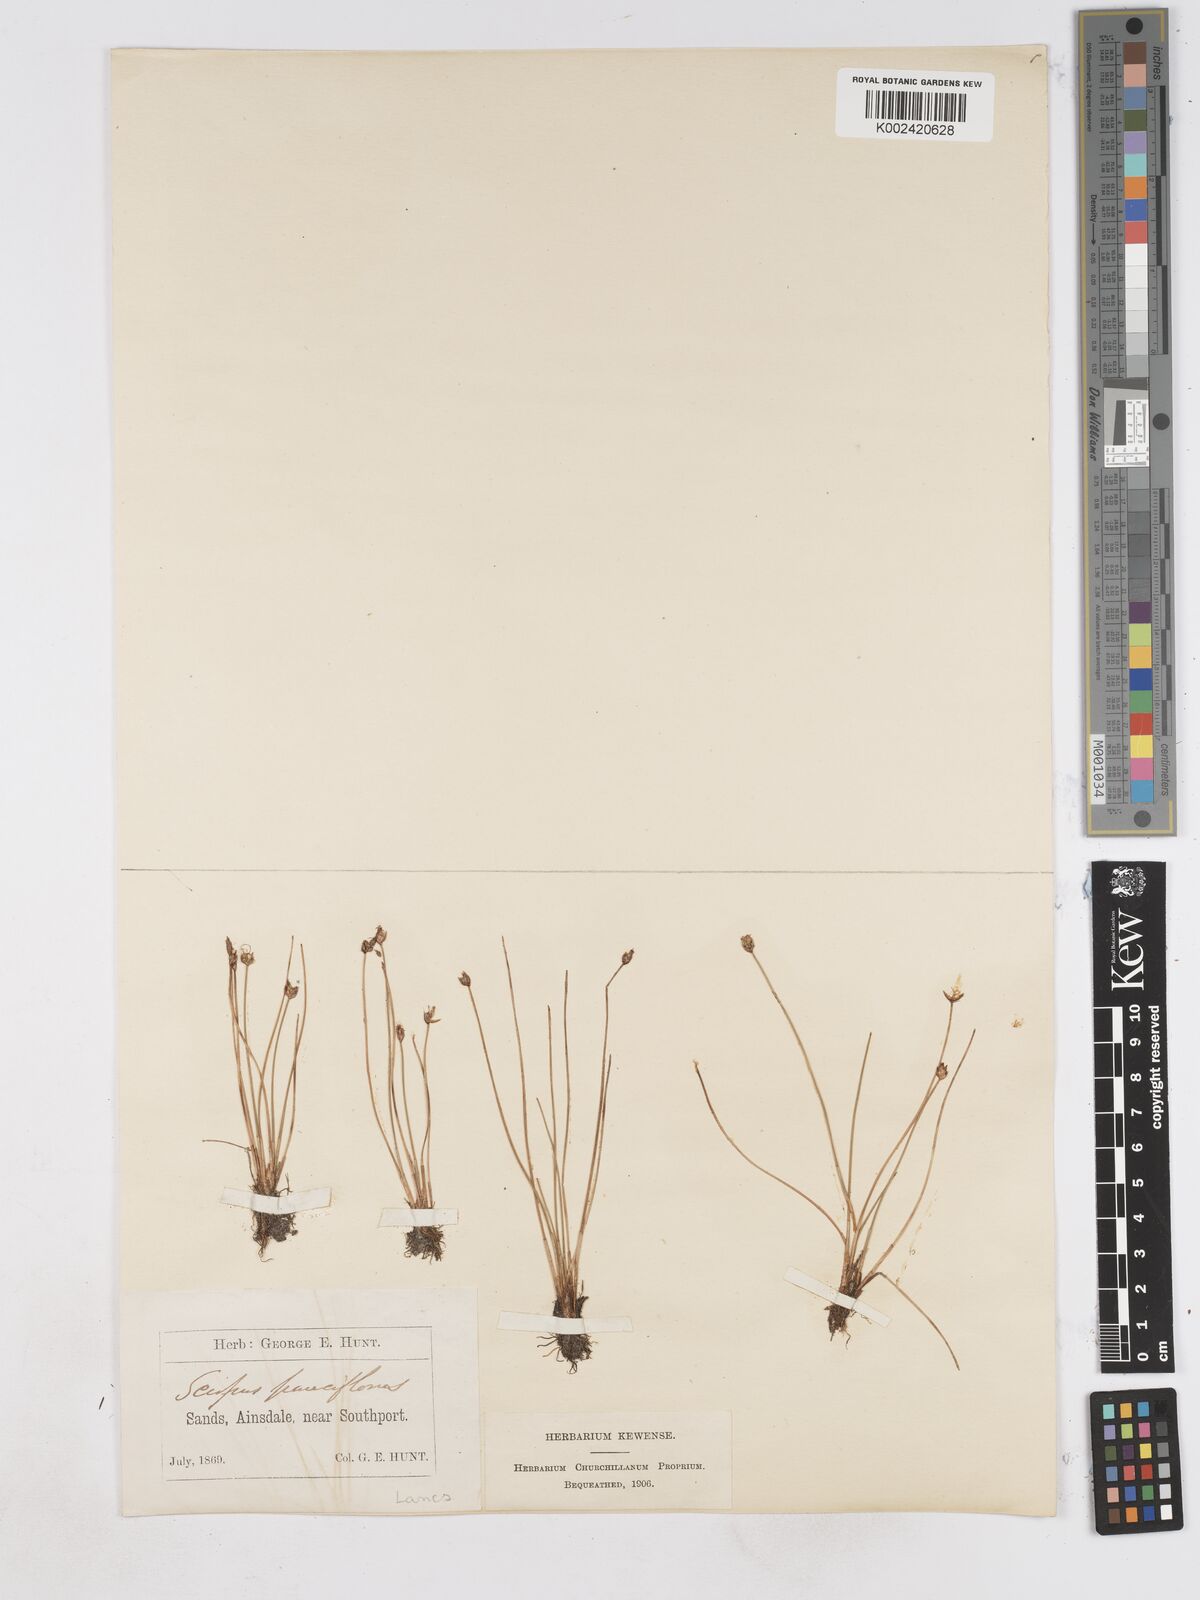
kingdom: Plantae
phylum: Tracheophyta
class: Liliopsida
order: Poales
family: Cyperaceae
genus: Eleocharis
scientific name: Eleocharis quinqueflora
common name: Few-flowered spike-rush
